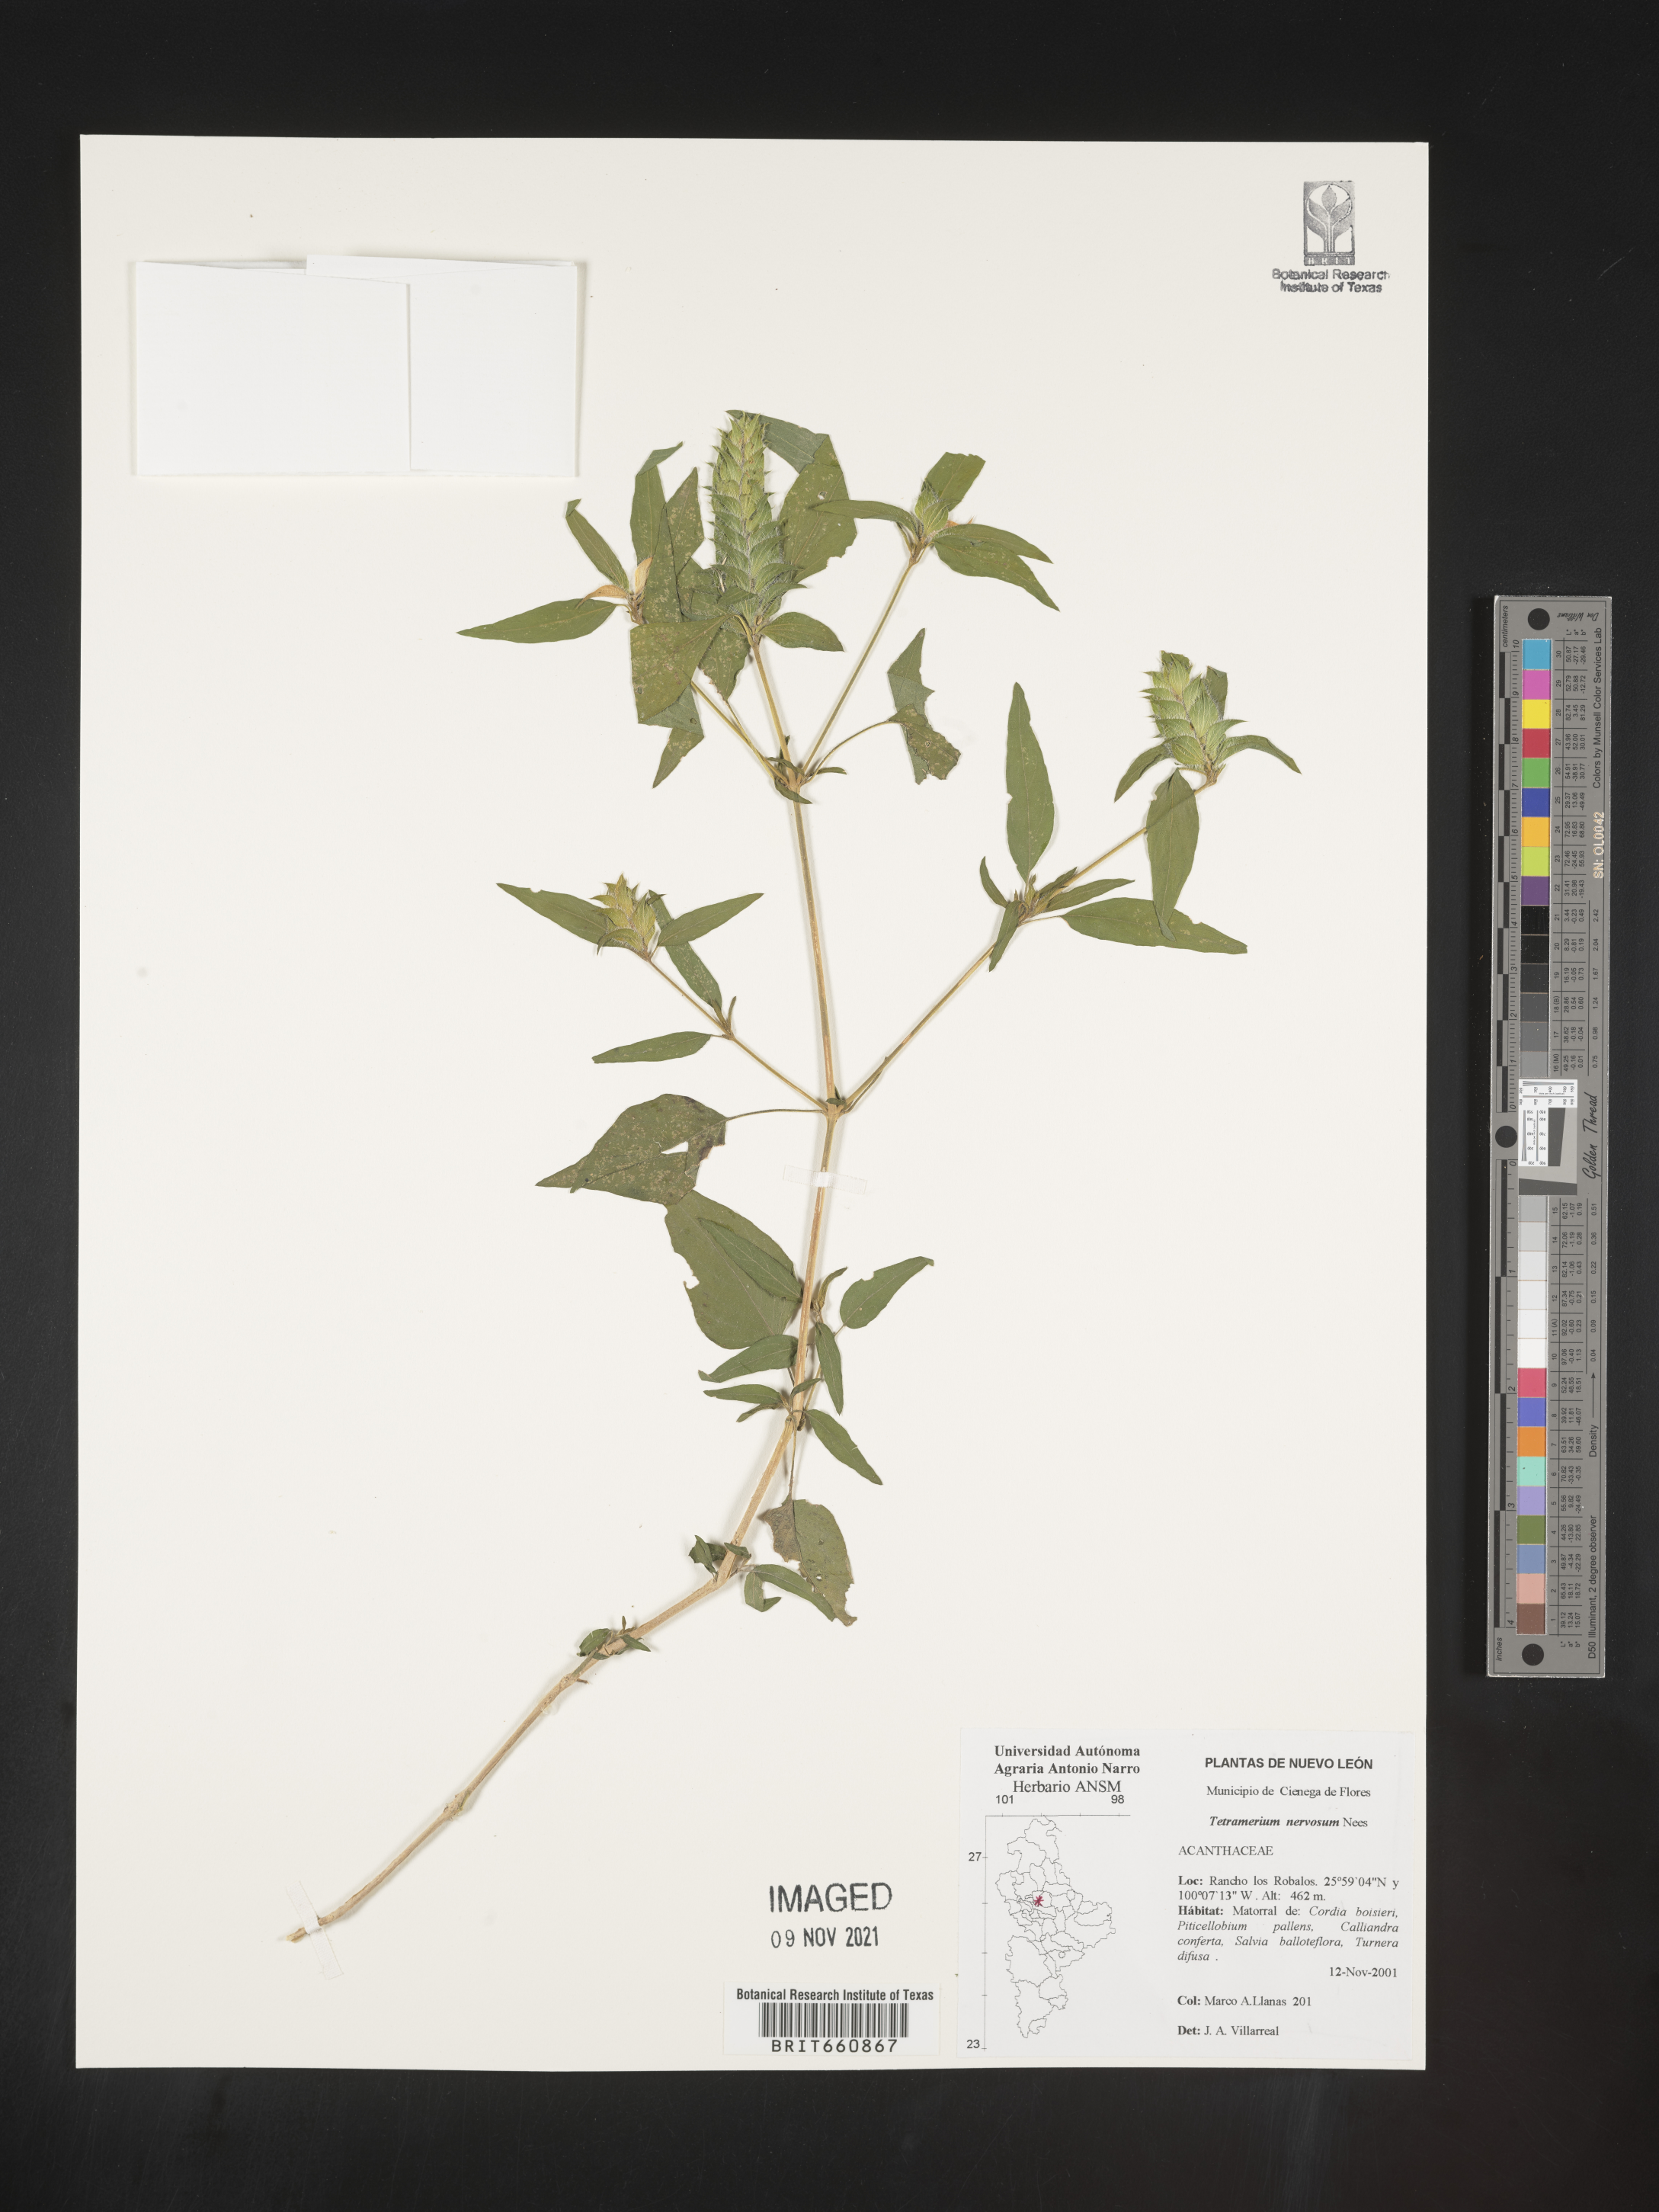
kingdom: Plantae
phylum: Tracheophyta
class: Magnoliopsida
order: Lamiales
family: Acanthaceae
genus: Tetramerium
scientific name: Tetramerium
